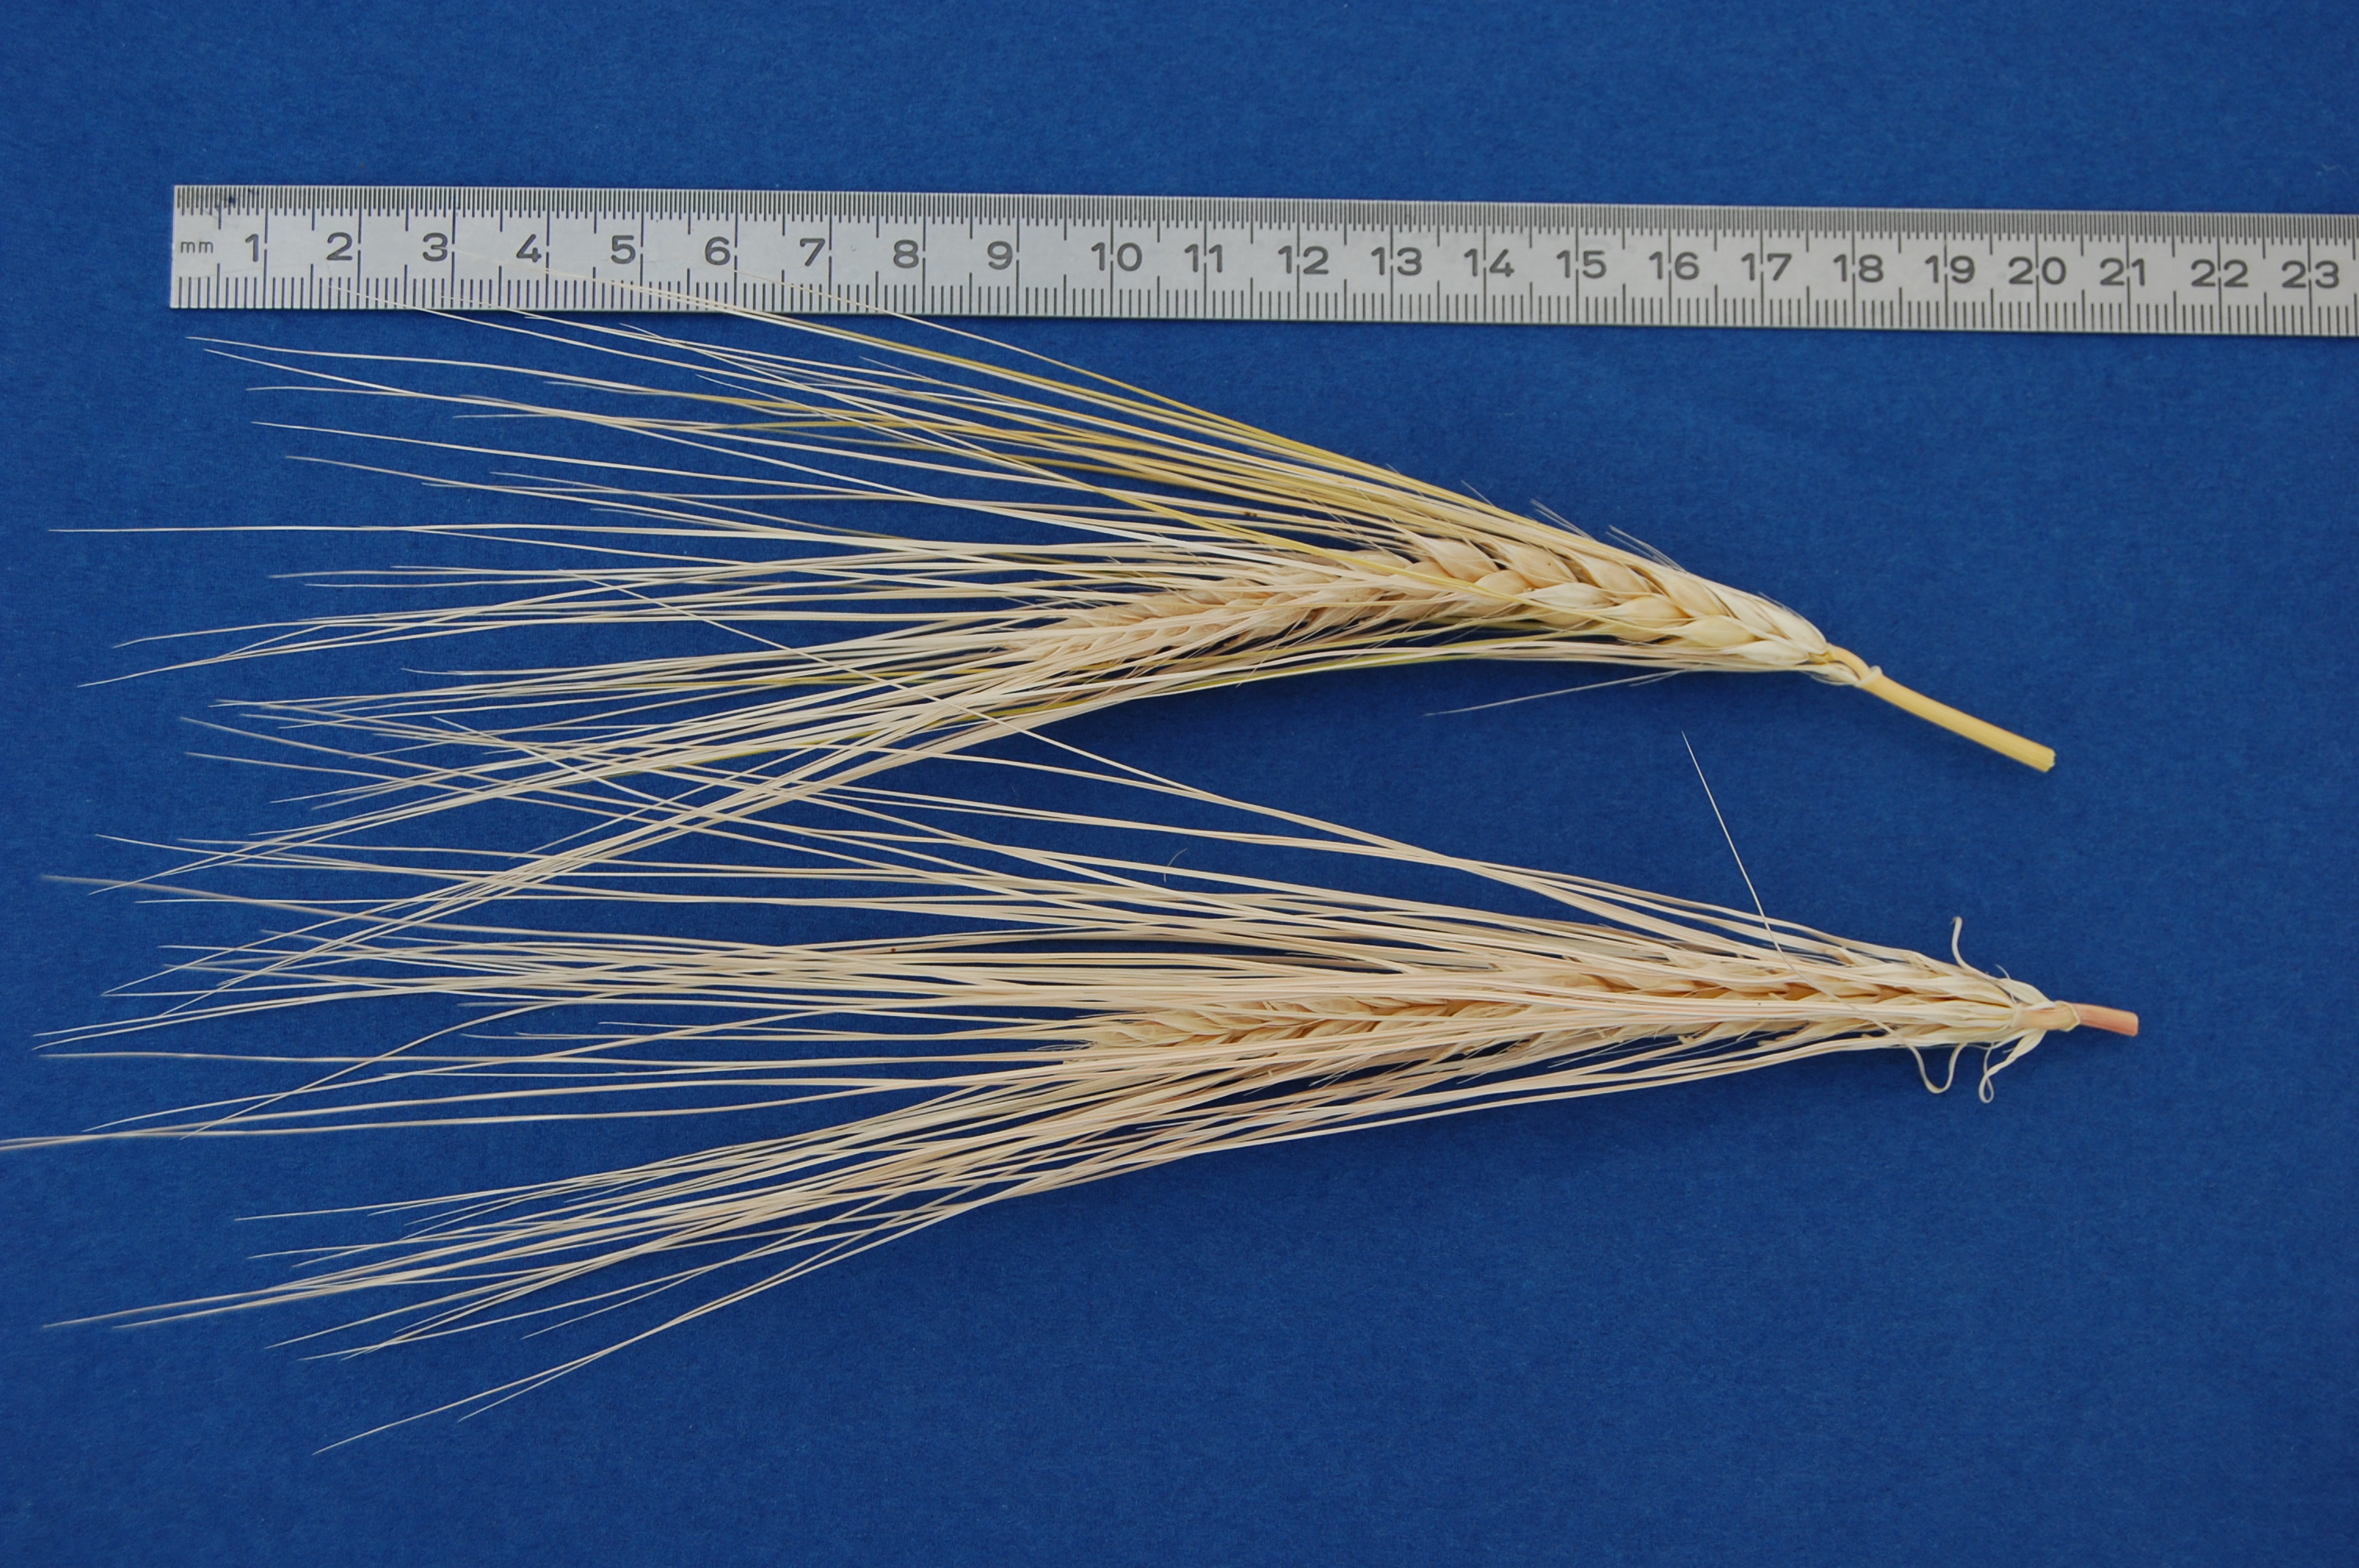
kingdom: Plantae
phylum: Tracheophyta
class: Liliopsida
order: Poales
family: Poaceae
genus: Hordeum
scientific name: Hordeum vulgare
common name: Common barley
